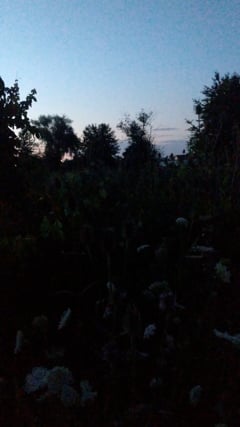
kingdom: Animalia
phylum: Arthropoda
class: Insecta
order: Orthoptera
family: Gryllidae
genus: Oecanthus
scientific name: Oecanthus pellucens
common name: Tree-cricket
